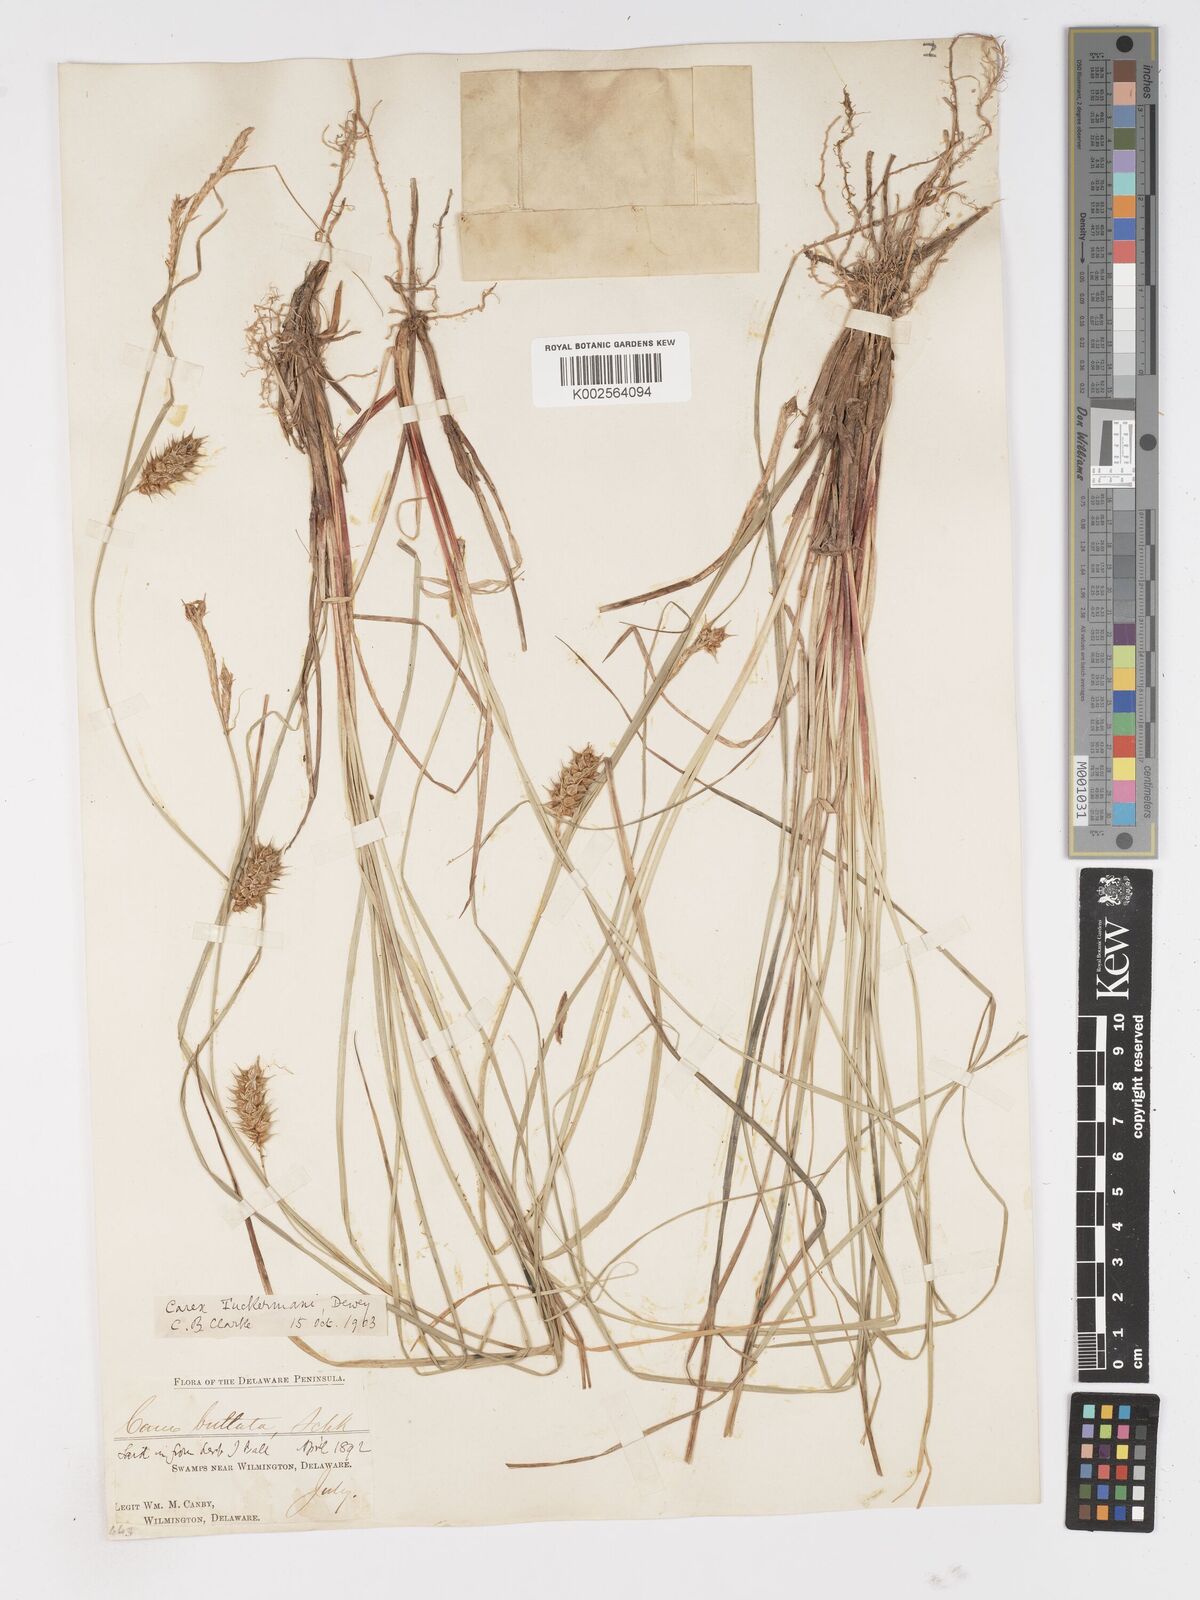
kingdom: Plantae
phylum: Tracheophyta
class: Liliopsida
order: Poales
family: Cyperaceae
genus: Carex
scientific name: Carex tuckermanii
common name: Tuckerman's sedge
